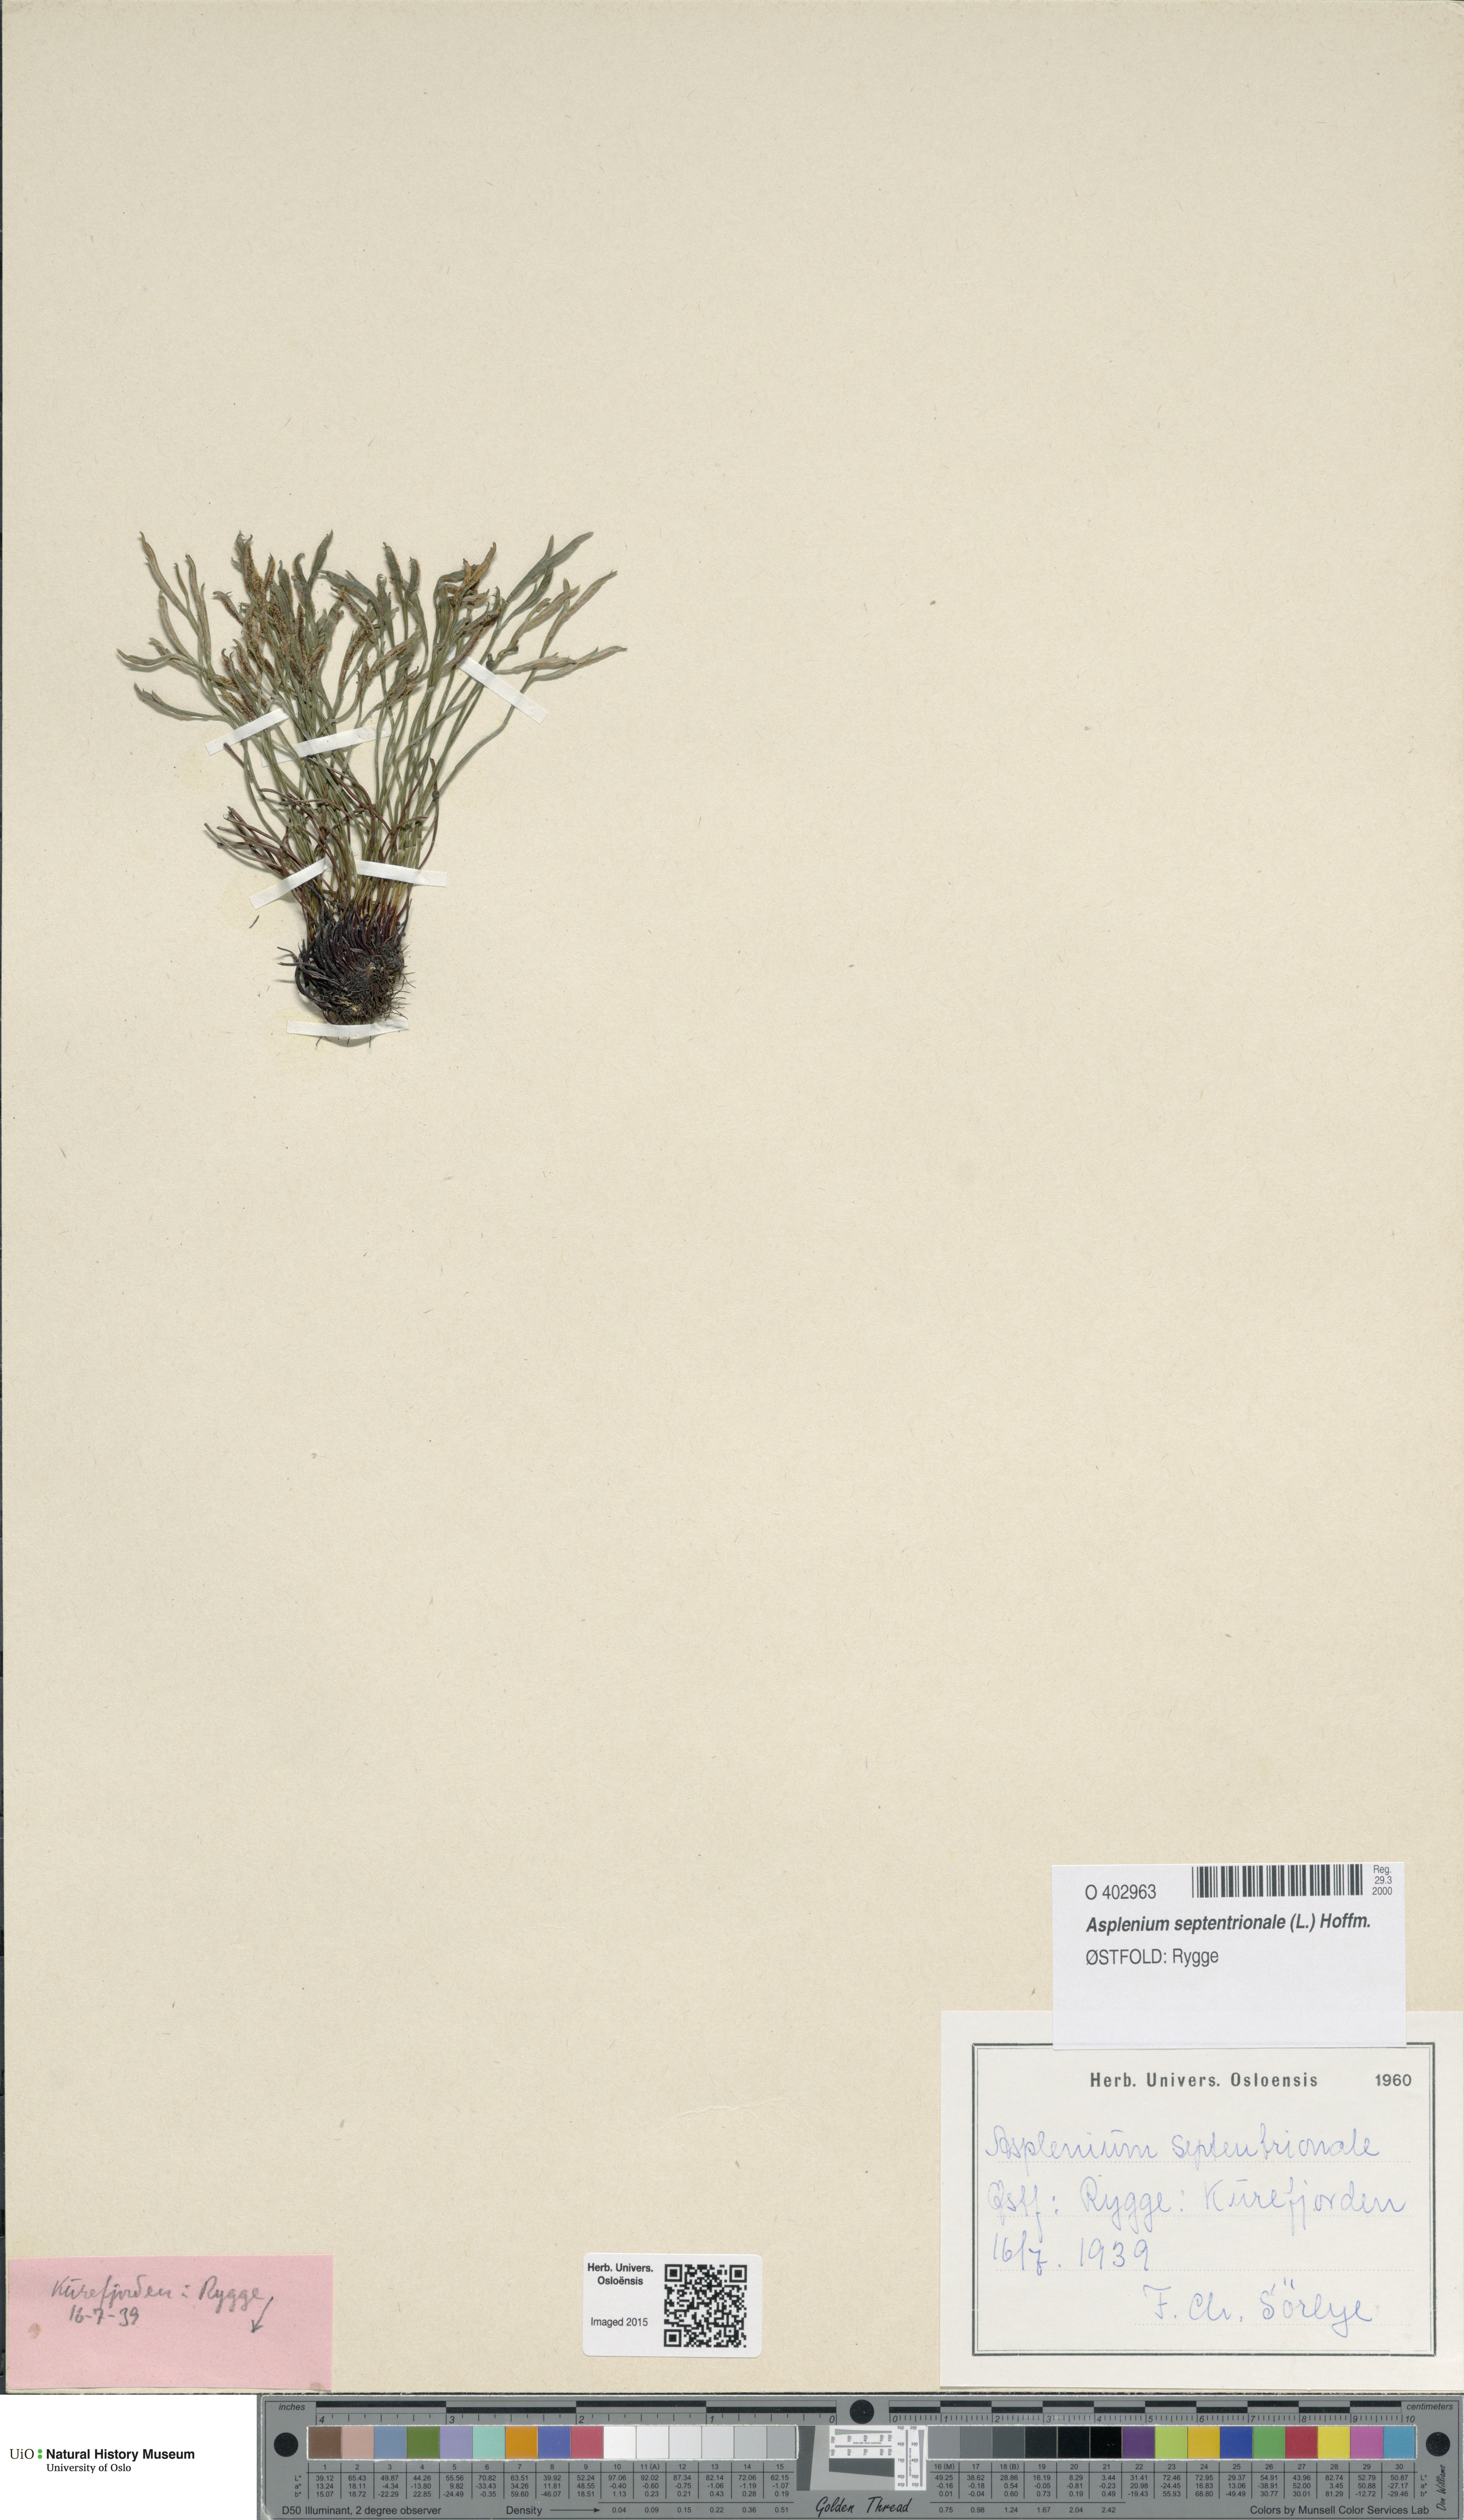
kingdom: Plantae
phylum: Tracheophyta
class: Polypodiopsida
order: Polypodiales
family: Aspleniaceae
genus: Asplenium
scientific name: Asplenium septentrionale
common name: Forked spleenwort
